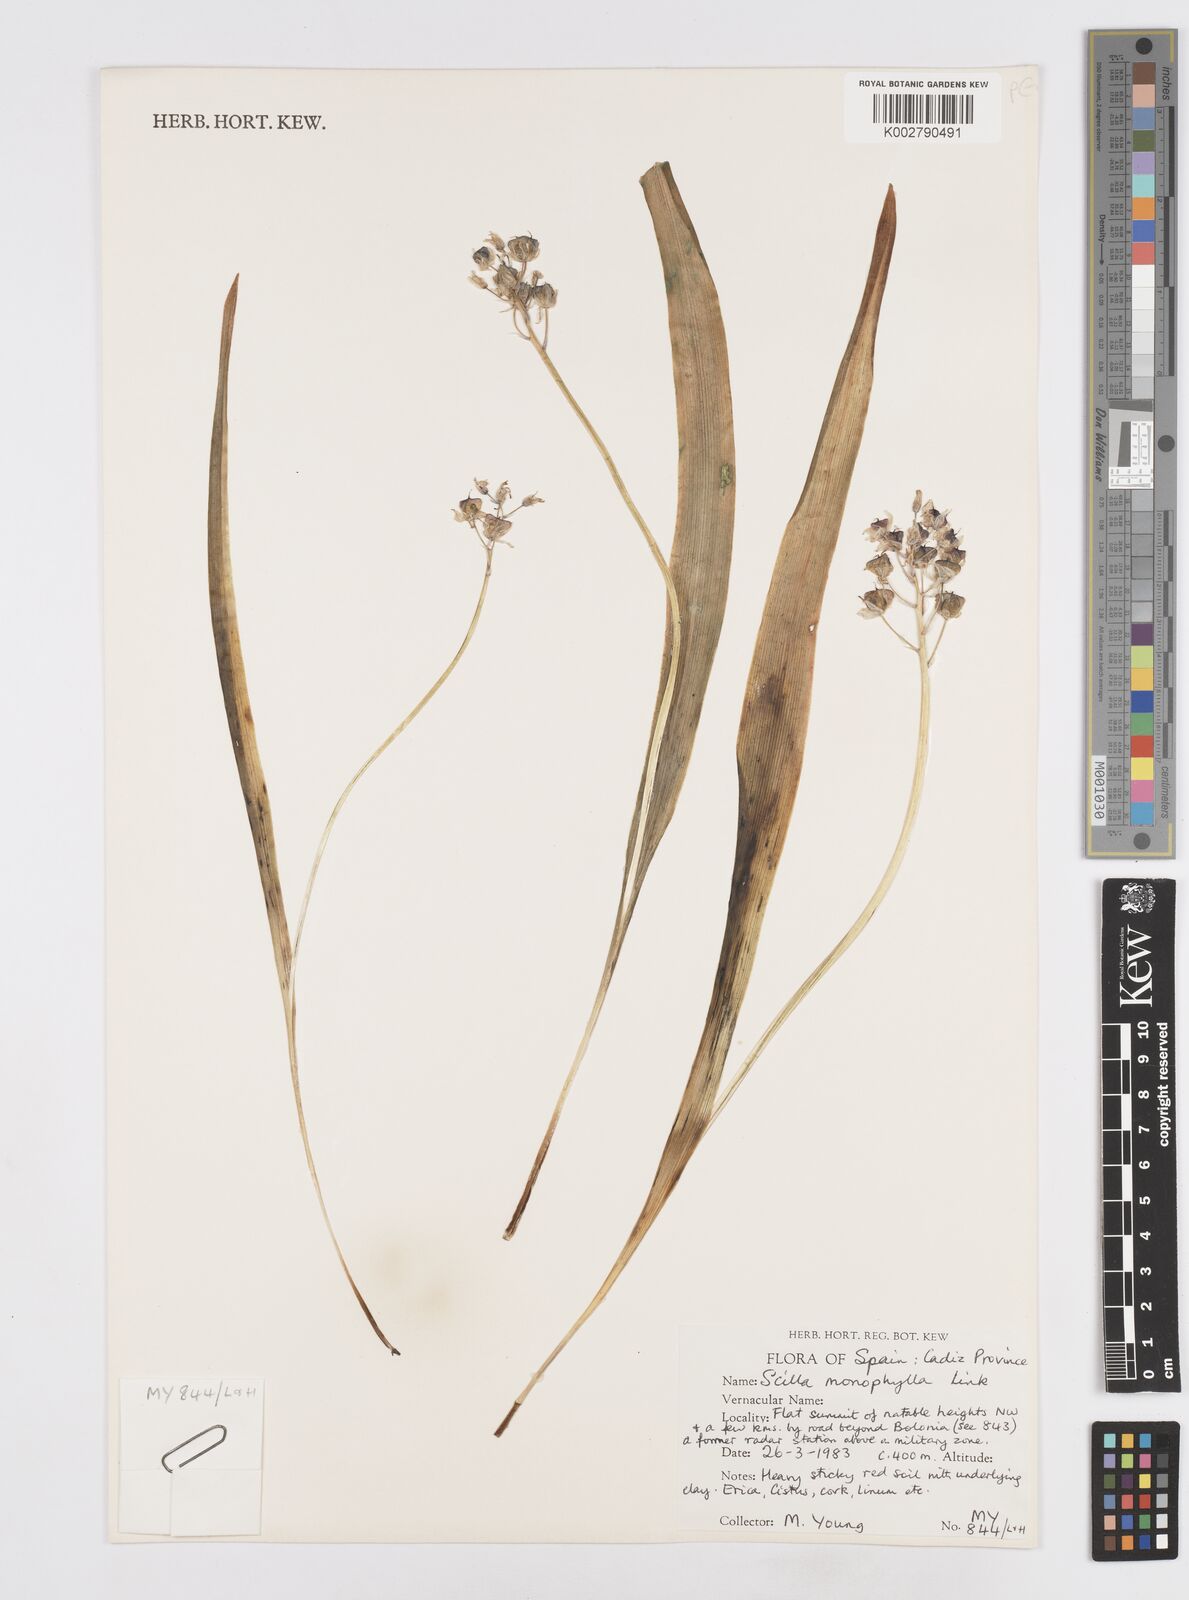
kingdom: Plantae
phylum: Tracheophyta
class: Liliopsida
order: Asparagales
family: Asparagaceae
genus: Scilla
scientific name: Scilla monophyllos
